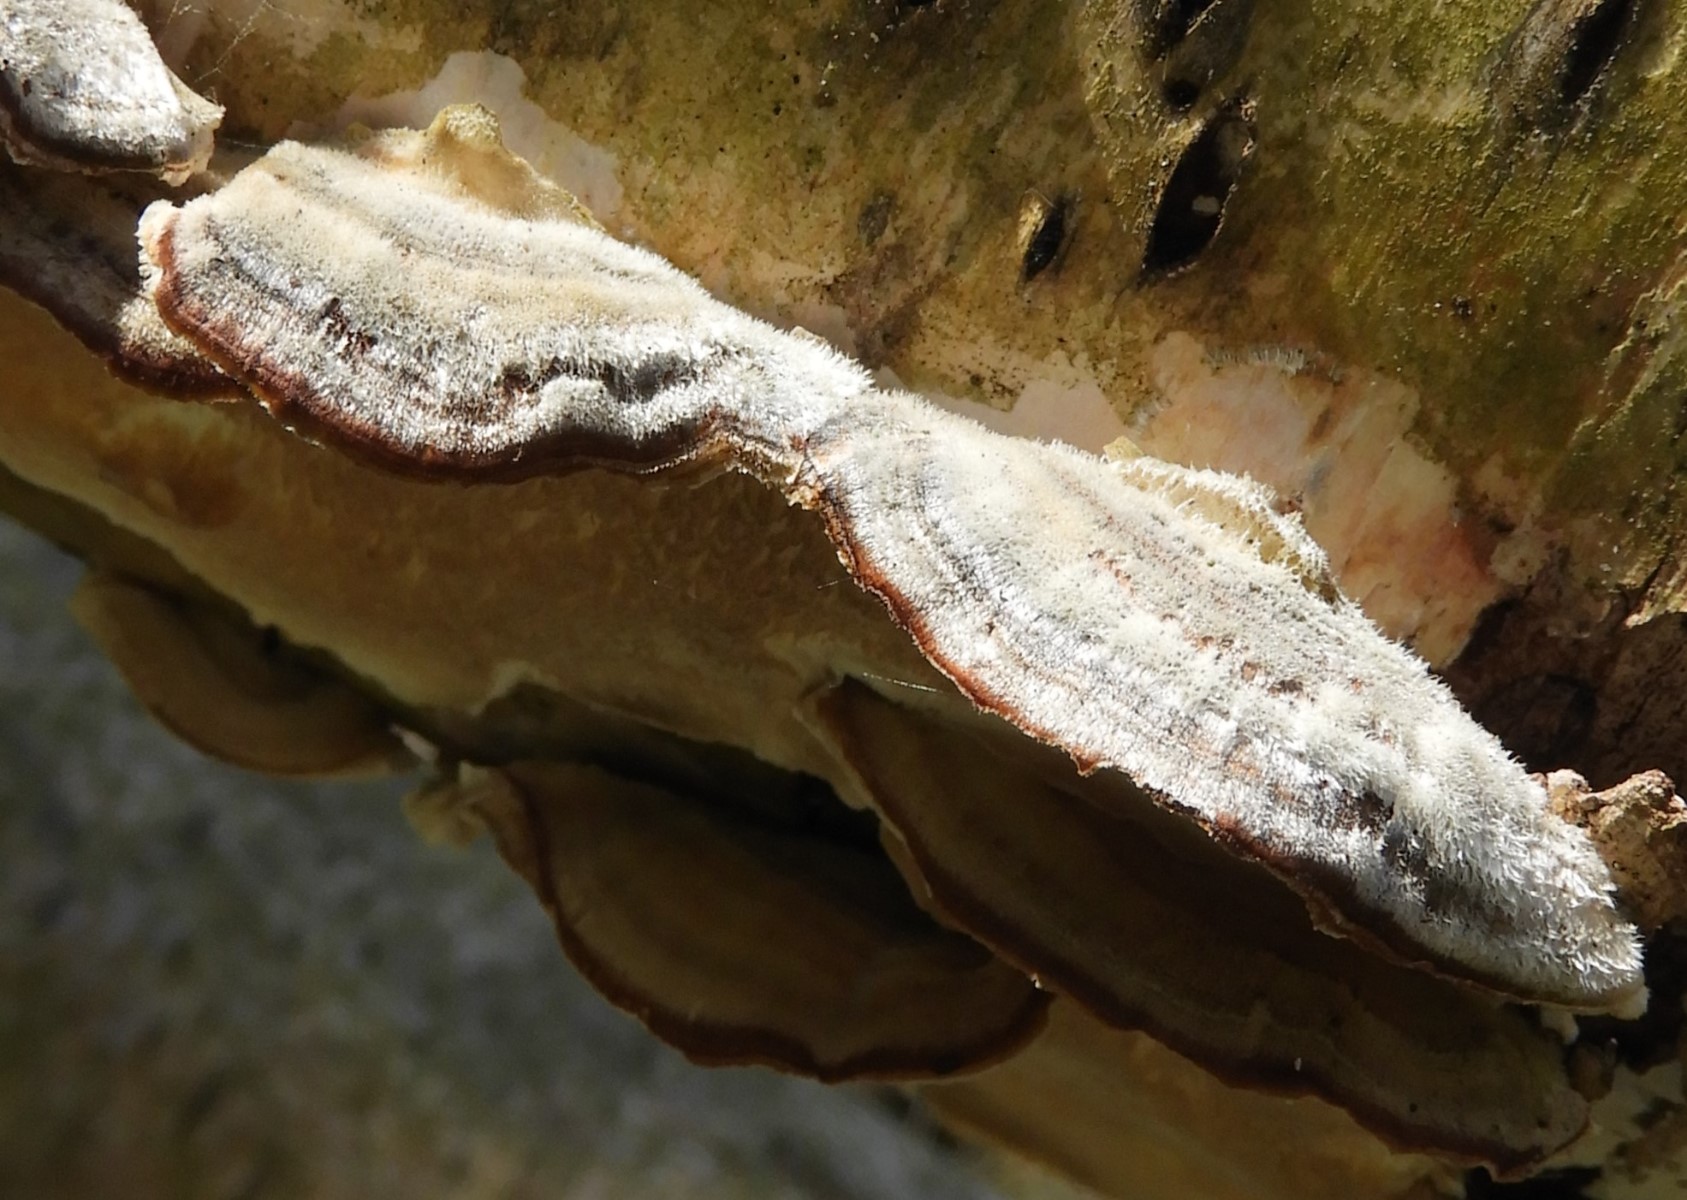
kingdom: Fungi
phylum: Basidiomycota
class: Agaricomycetes
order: Polyporales
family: Polyporaceae
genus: Trametes
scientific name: Trametes versicolor
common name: broget læderporesvamp
